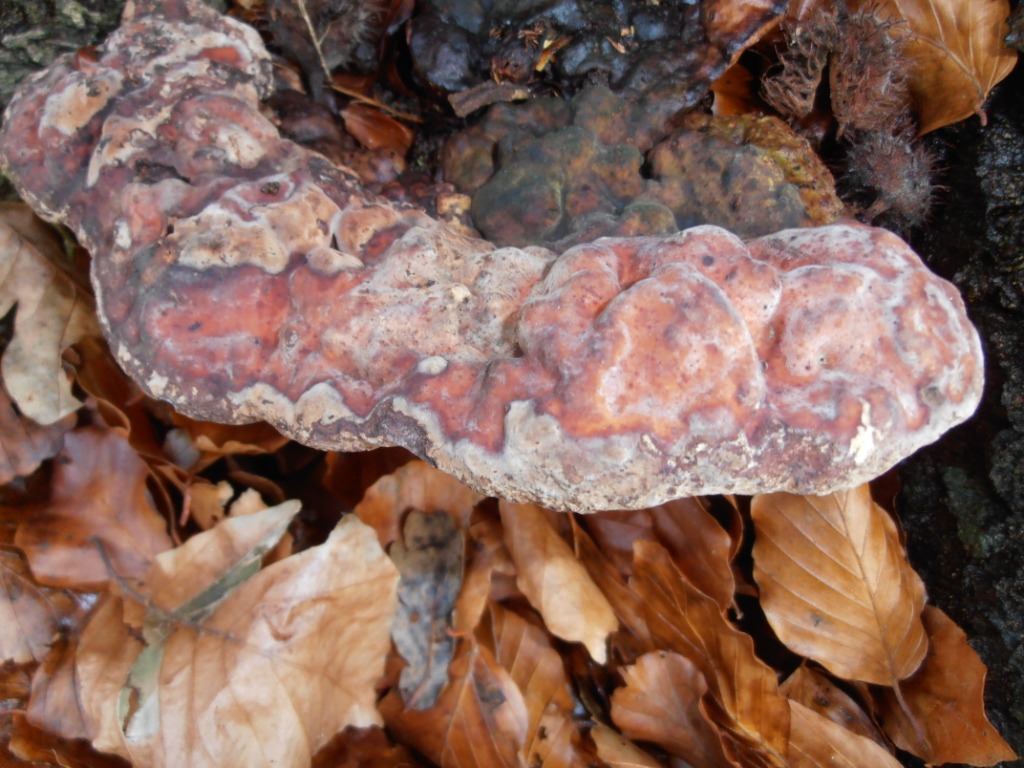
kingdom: Fungi
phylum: Basidiomycota
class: Agaricomycetes
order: Polyporales
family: Polyporaceae
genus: Vanderbylia
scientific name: Vanderbylia fraxinea
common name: stor kanelporesvamp
